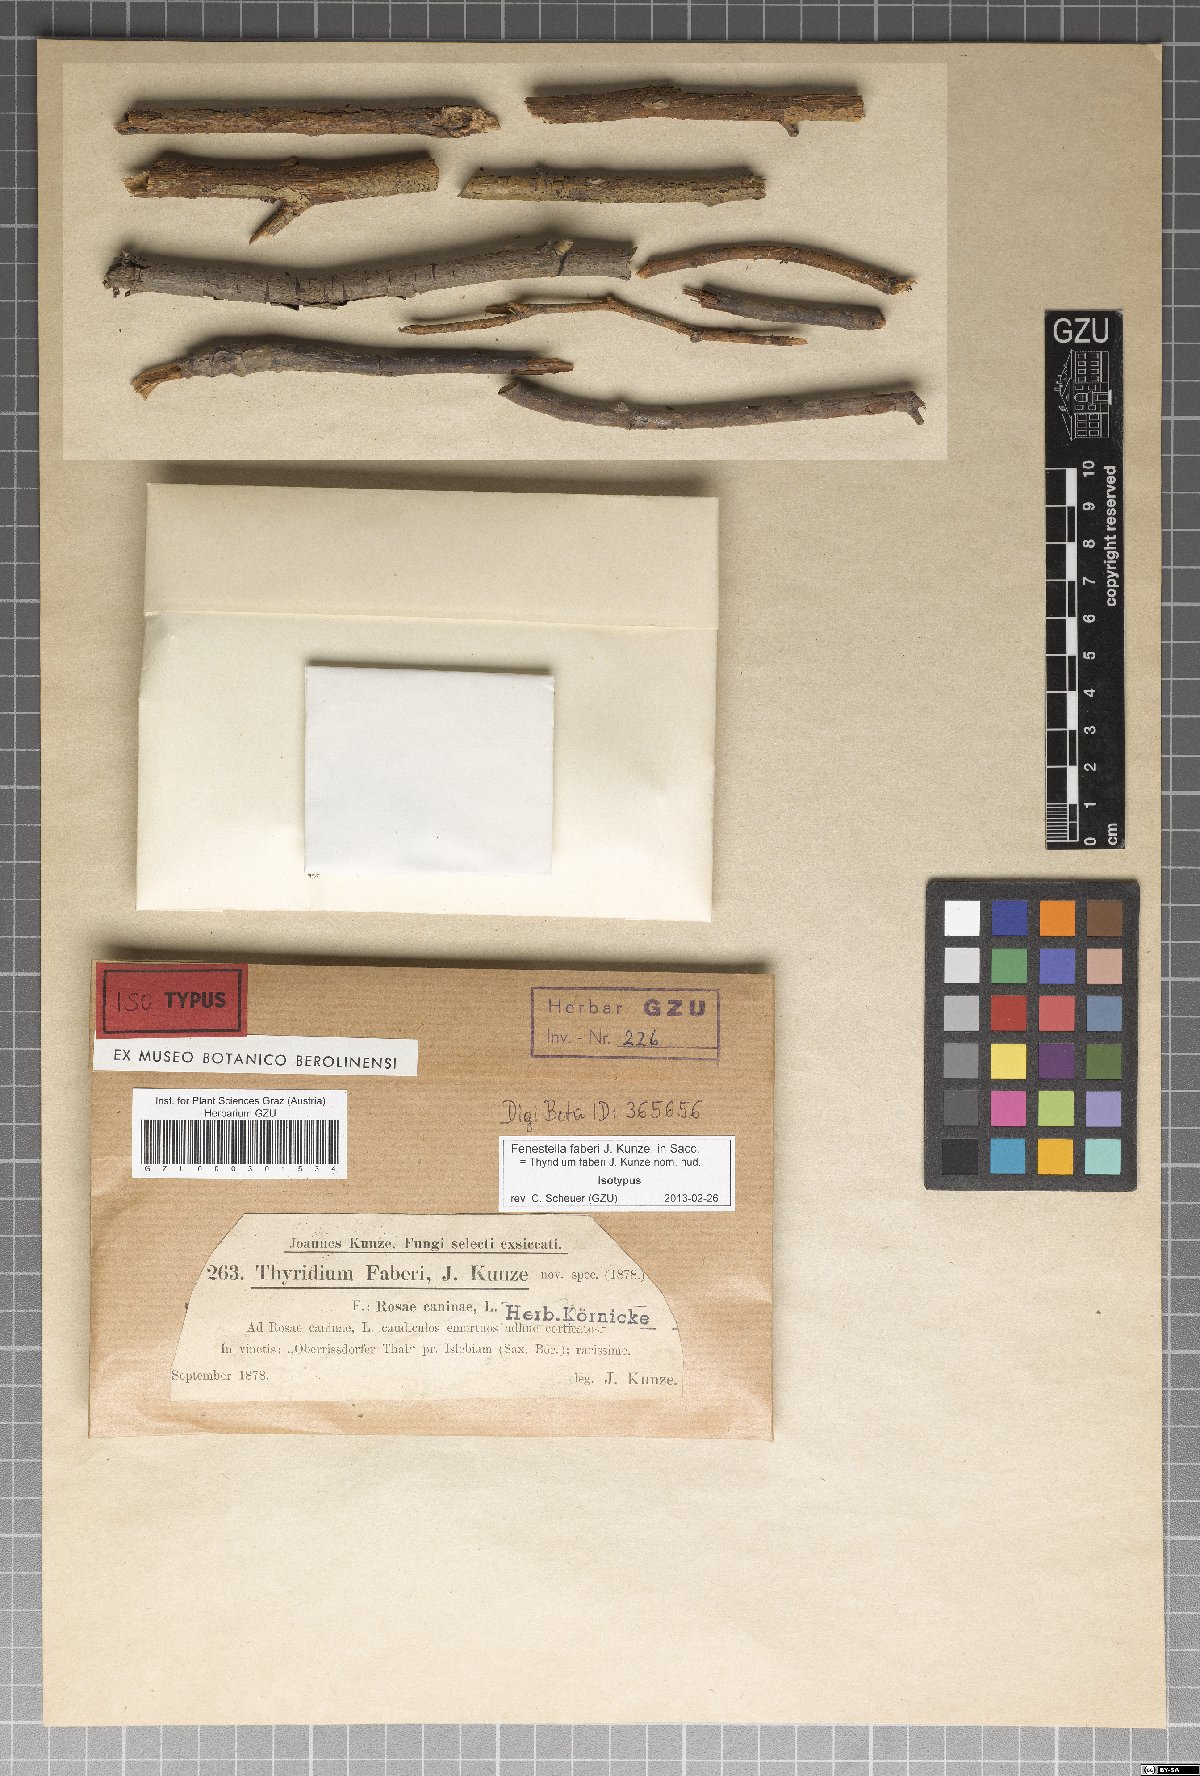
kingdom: Fungi
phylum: Ascomycota
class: Dothideomycetes
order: Pleosporales
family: Cucurbitariaceae
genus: Parafenestella
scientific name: Parafenestella faberi
